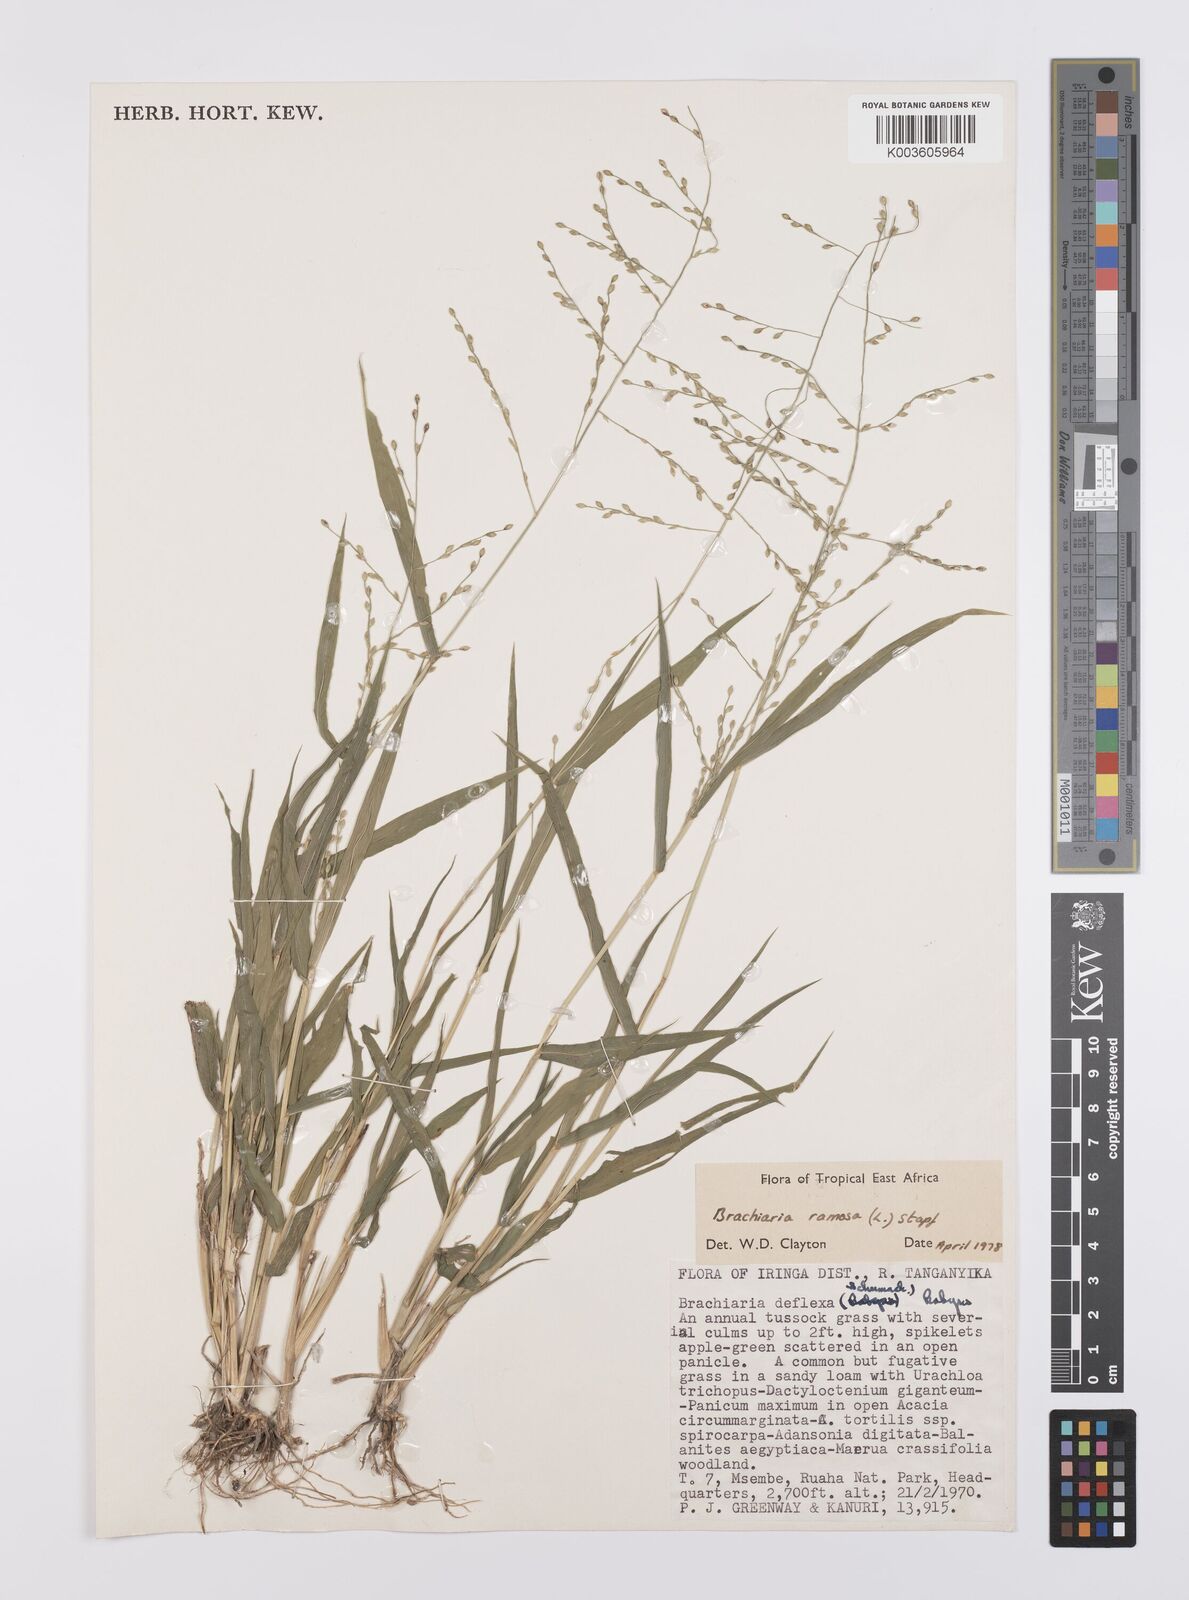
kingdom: Plantae
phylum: Tracheophyta
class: Liliopsida
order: Poales
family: Poaceae
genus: Urochloa
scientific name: Urochloa ramosa
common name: Browntop millet
